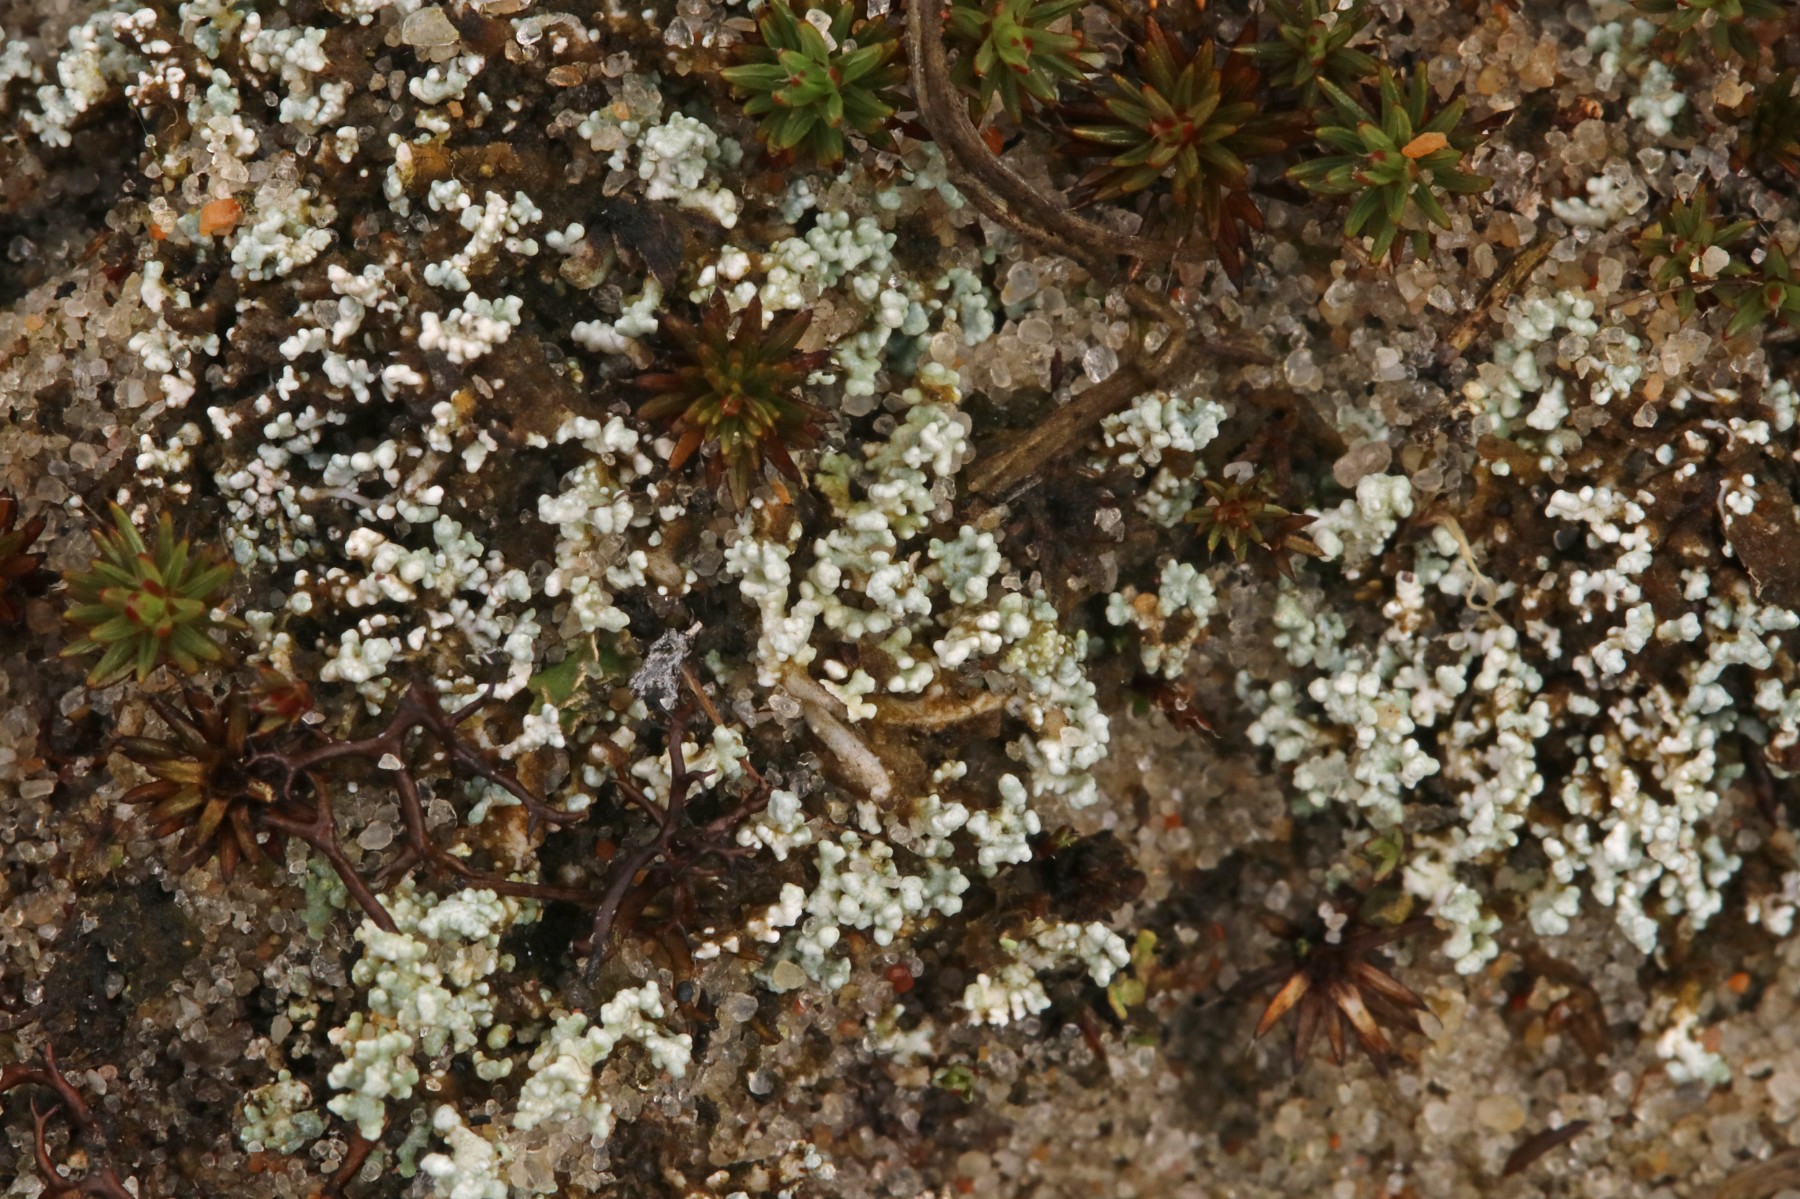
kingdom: Fungi
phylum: Ascomycota
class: Lecanoromycetes
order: Lecanorales
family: Stereocaulaceae
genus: Stereocaulon
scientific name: Stereocaulon condensatum
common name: lav korallav
